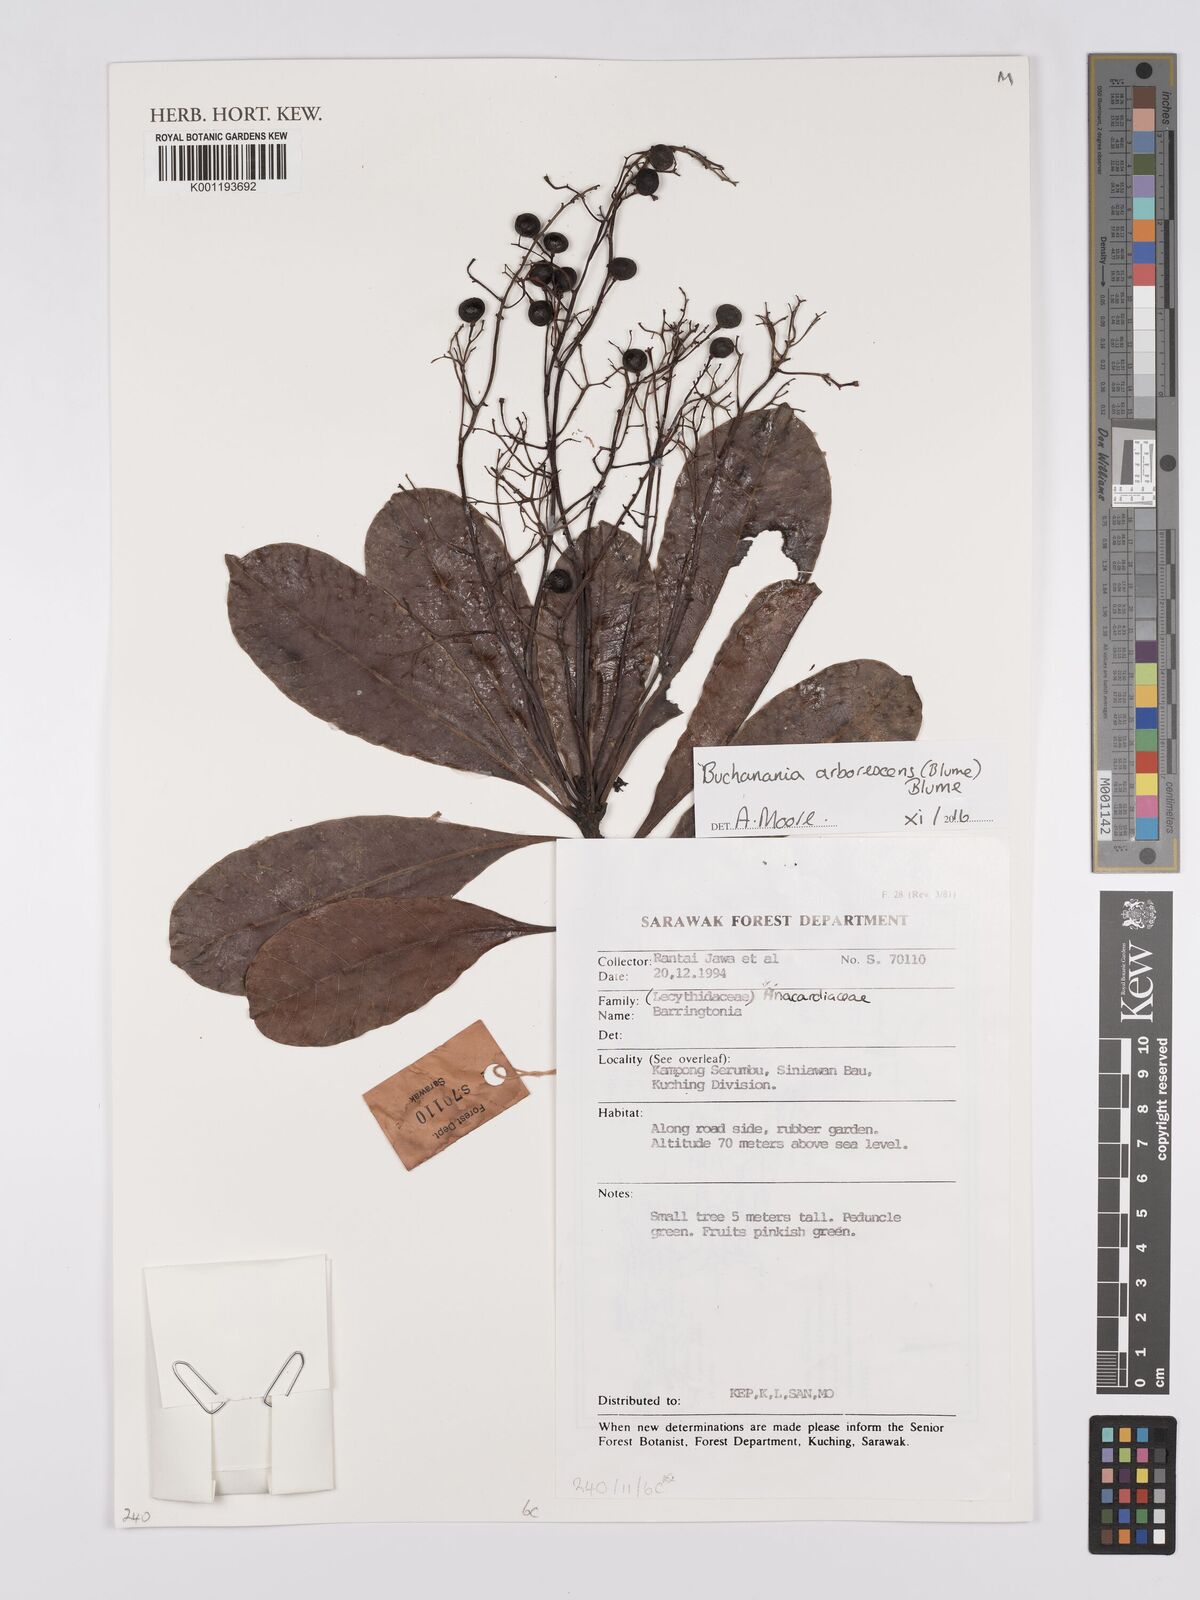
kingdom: Plantae
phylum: Tracheophyta
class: Magnoliopsida
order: Sapindales
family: Anacardiaceae
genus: Buchanania
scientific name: Buchanania arborescens
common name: Sparrow’s mango
